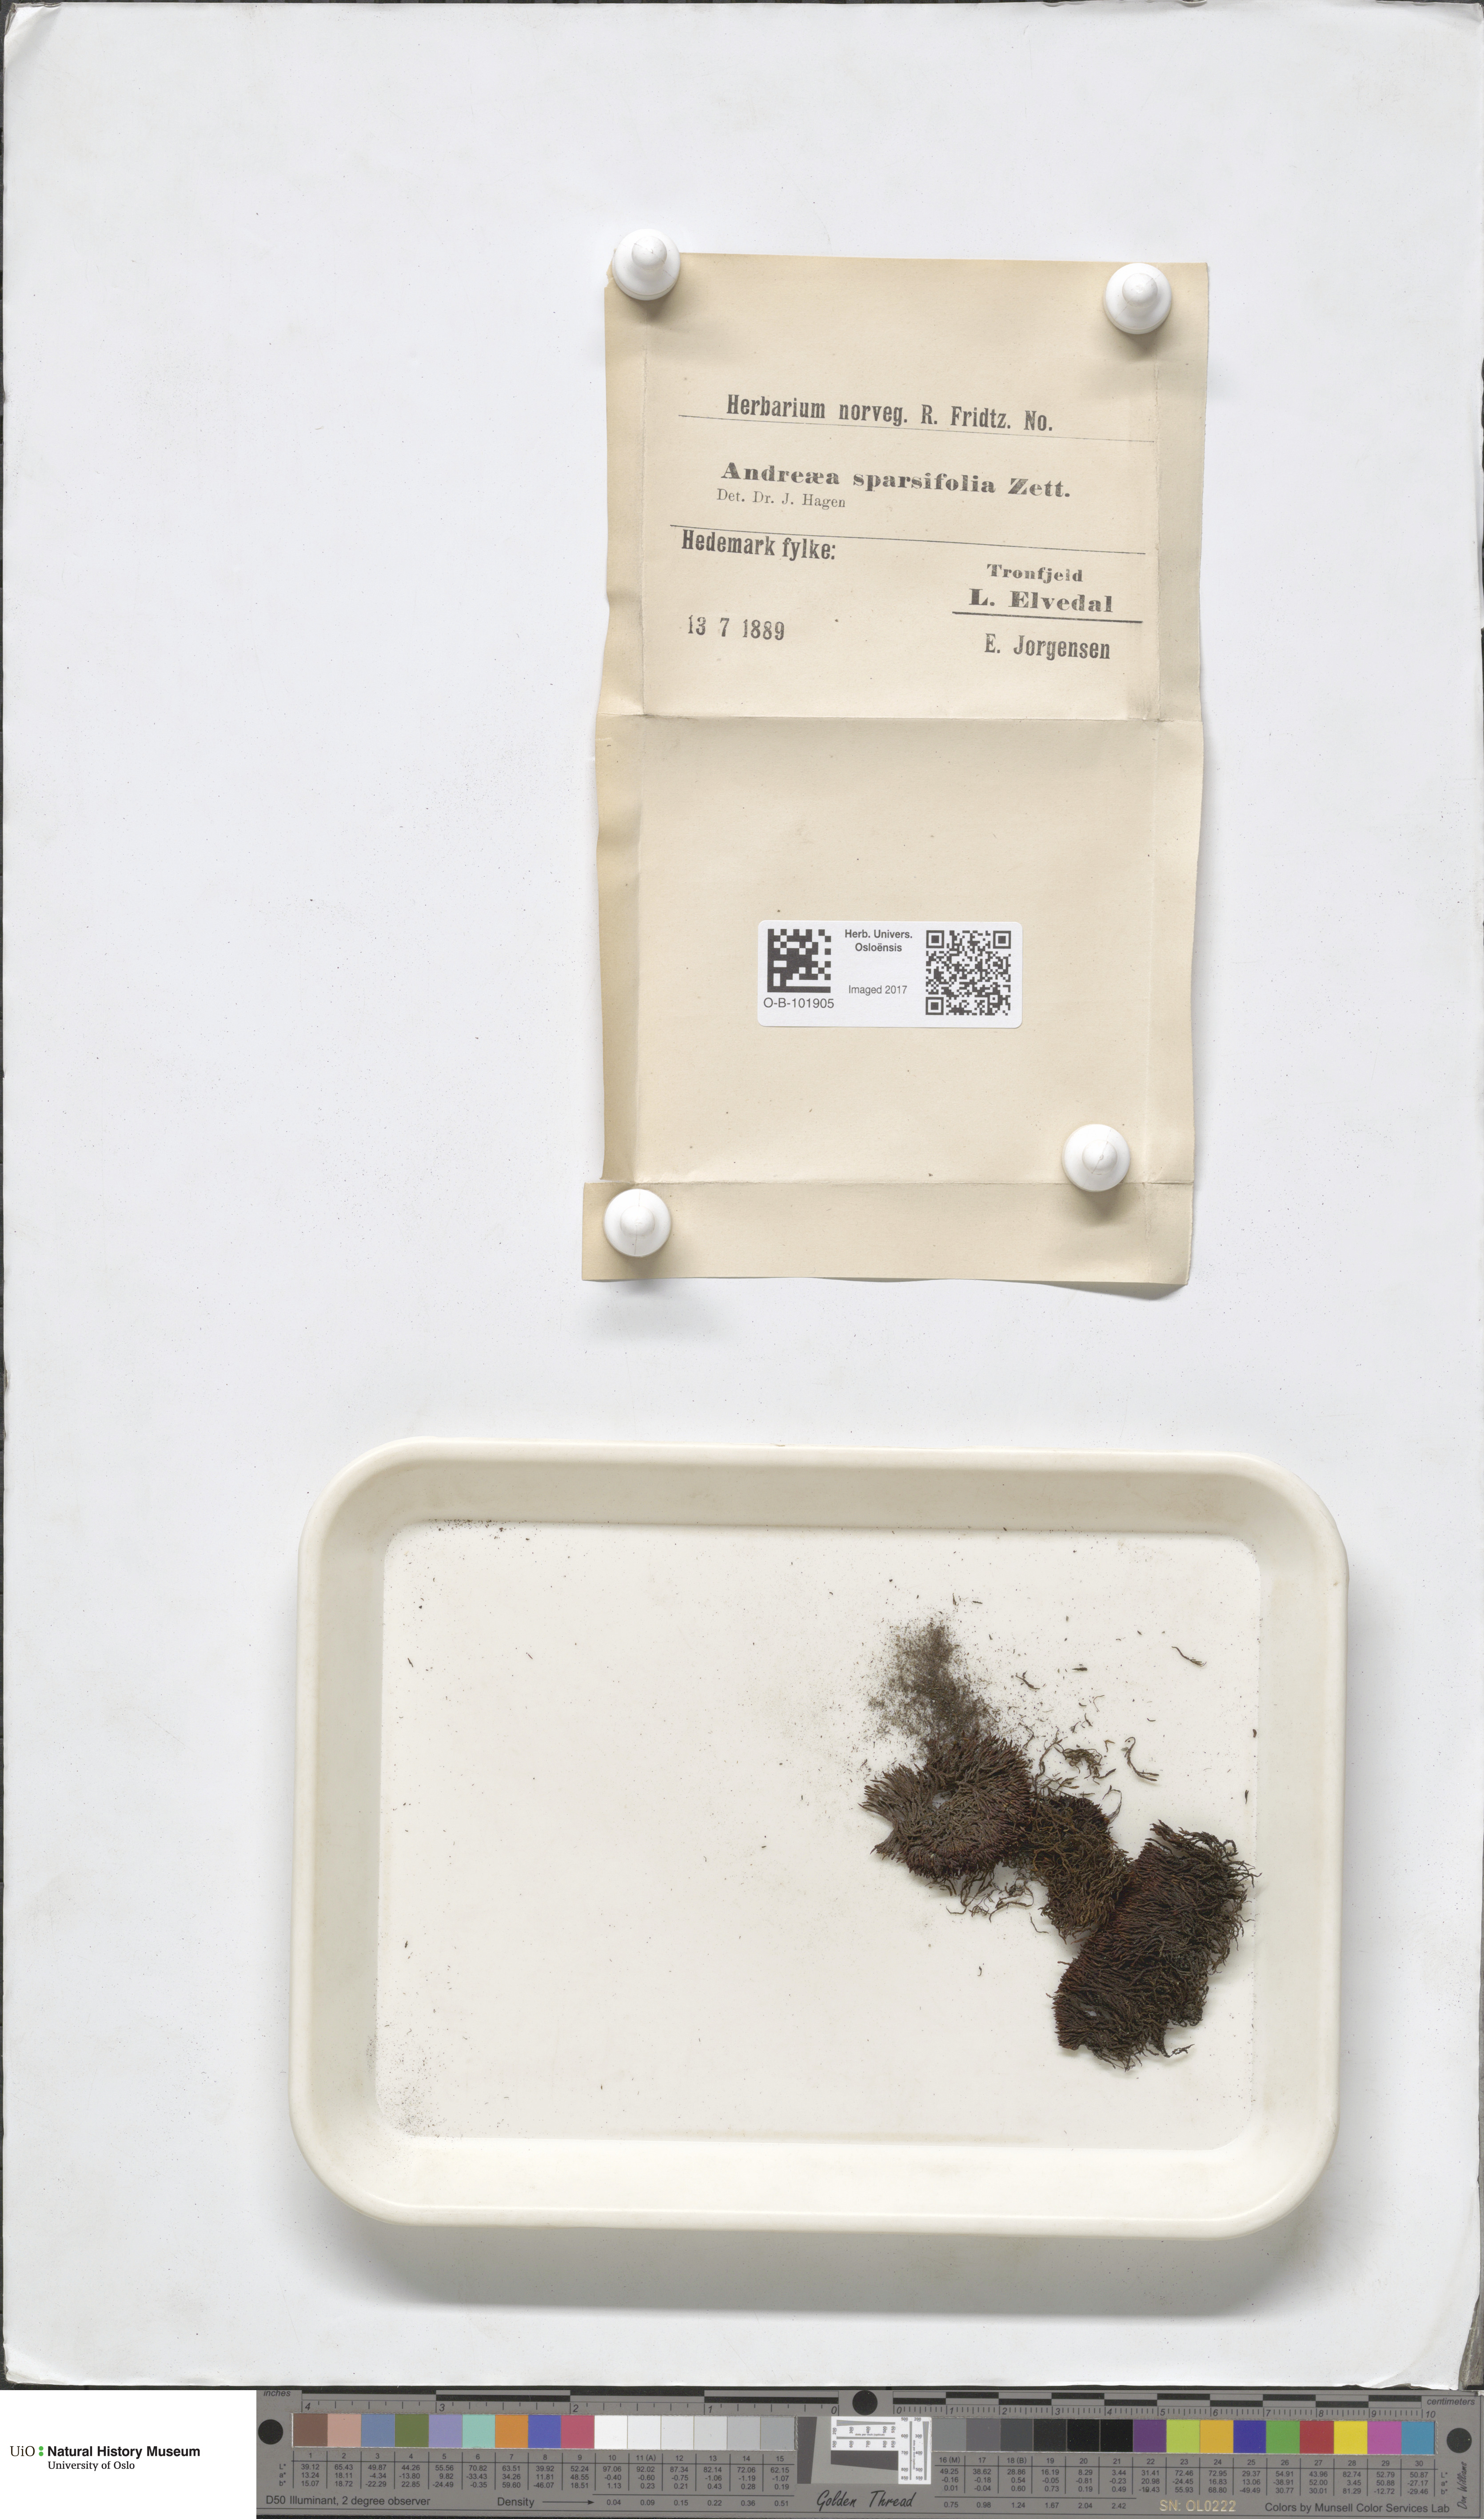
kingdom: Plantae
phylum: Bryophyta
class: Andreaeopsida
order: Andreaeales
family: Andreaeaceae
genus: Andreaea
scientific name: Andreaea rupestris
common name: Black rock moss
